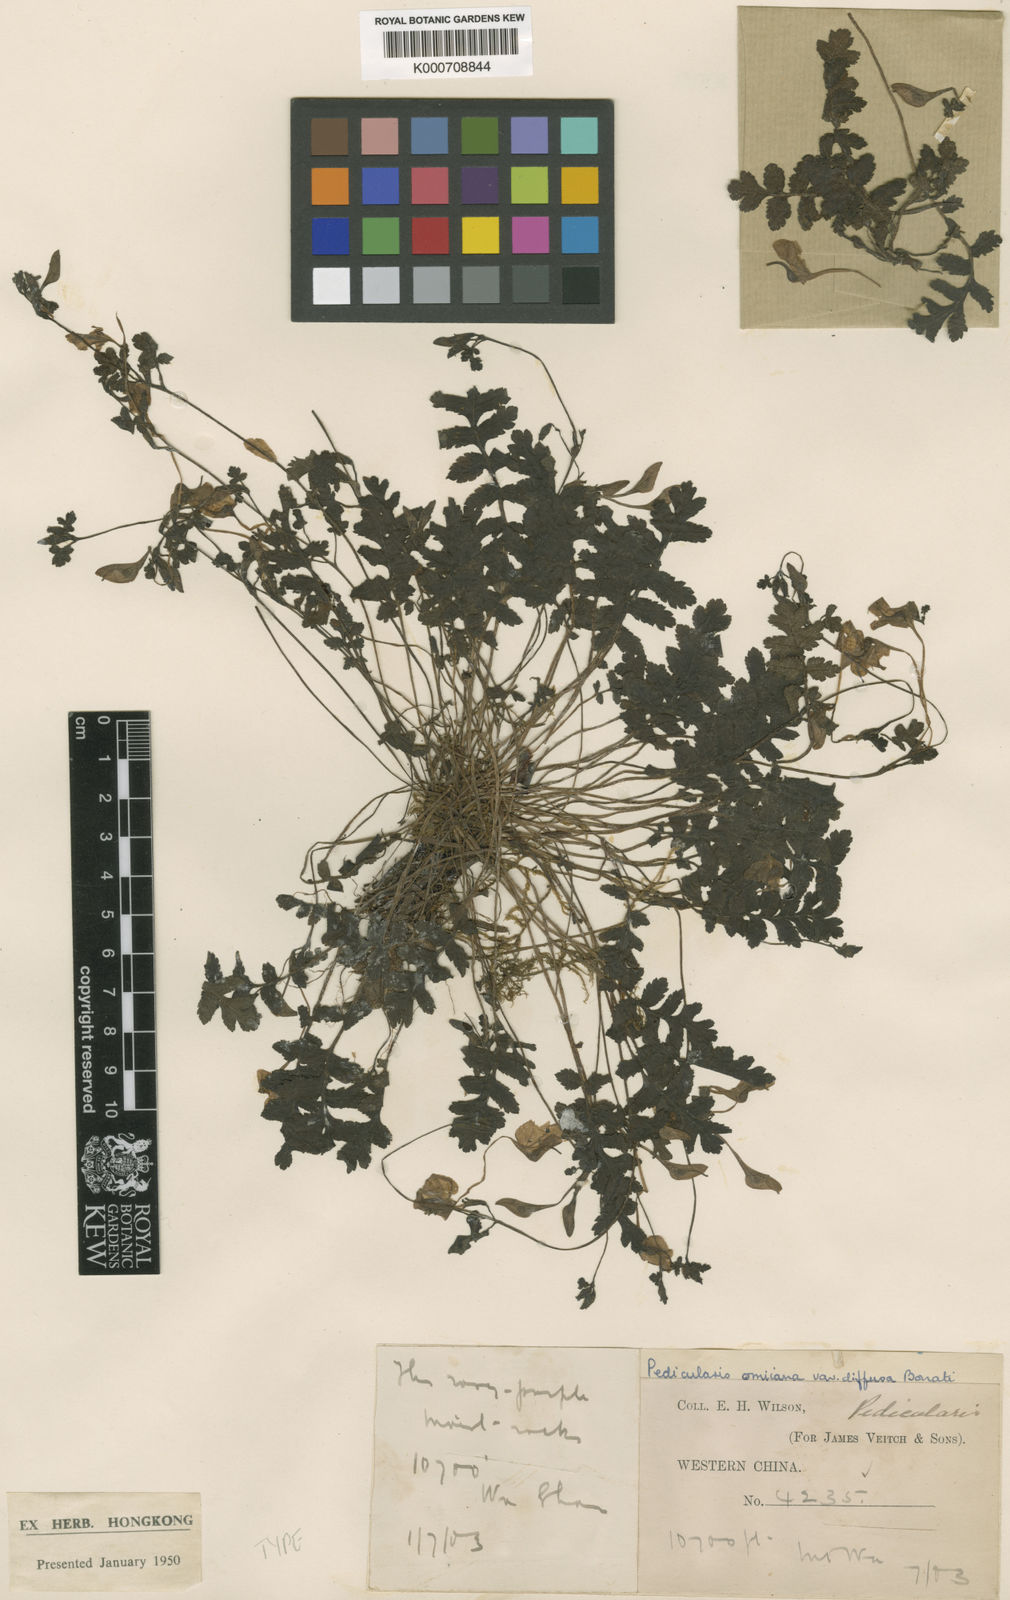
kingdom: Plantae
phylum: Tracheophyta
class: Magnoliopsida
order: Lamiales
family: Orobanchaceae
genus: Pedicularis
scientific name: Pedicularis omiiana
